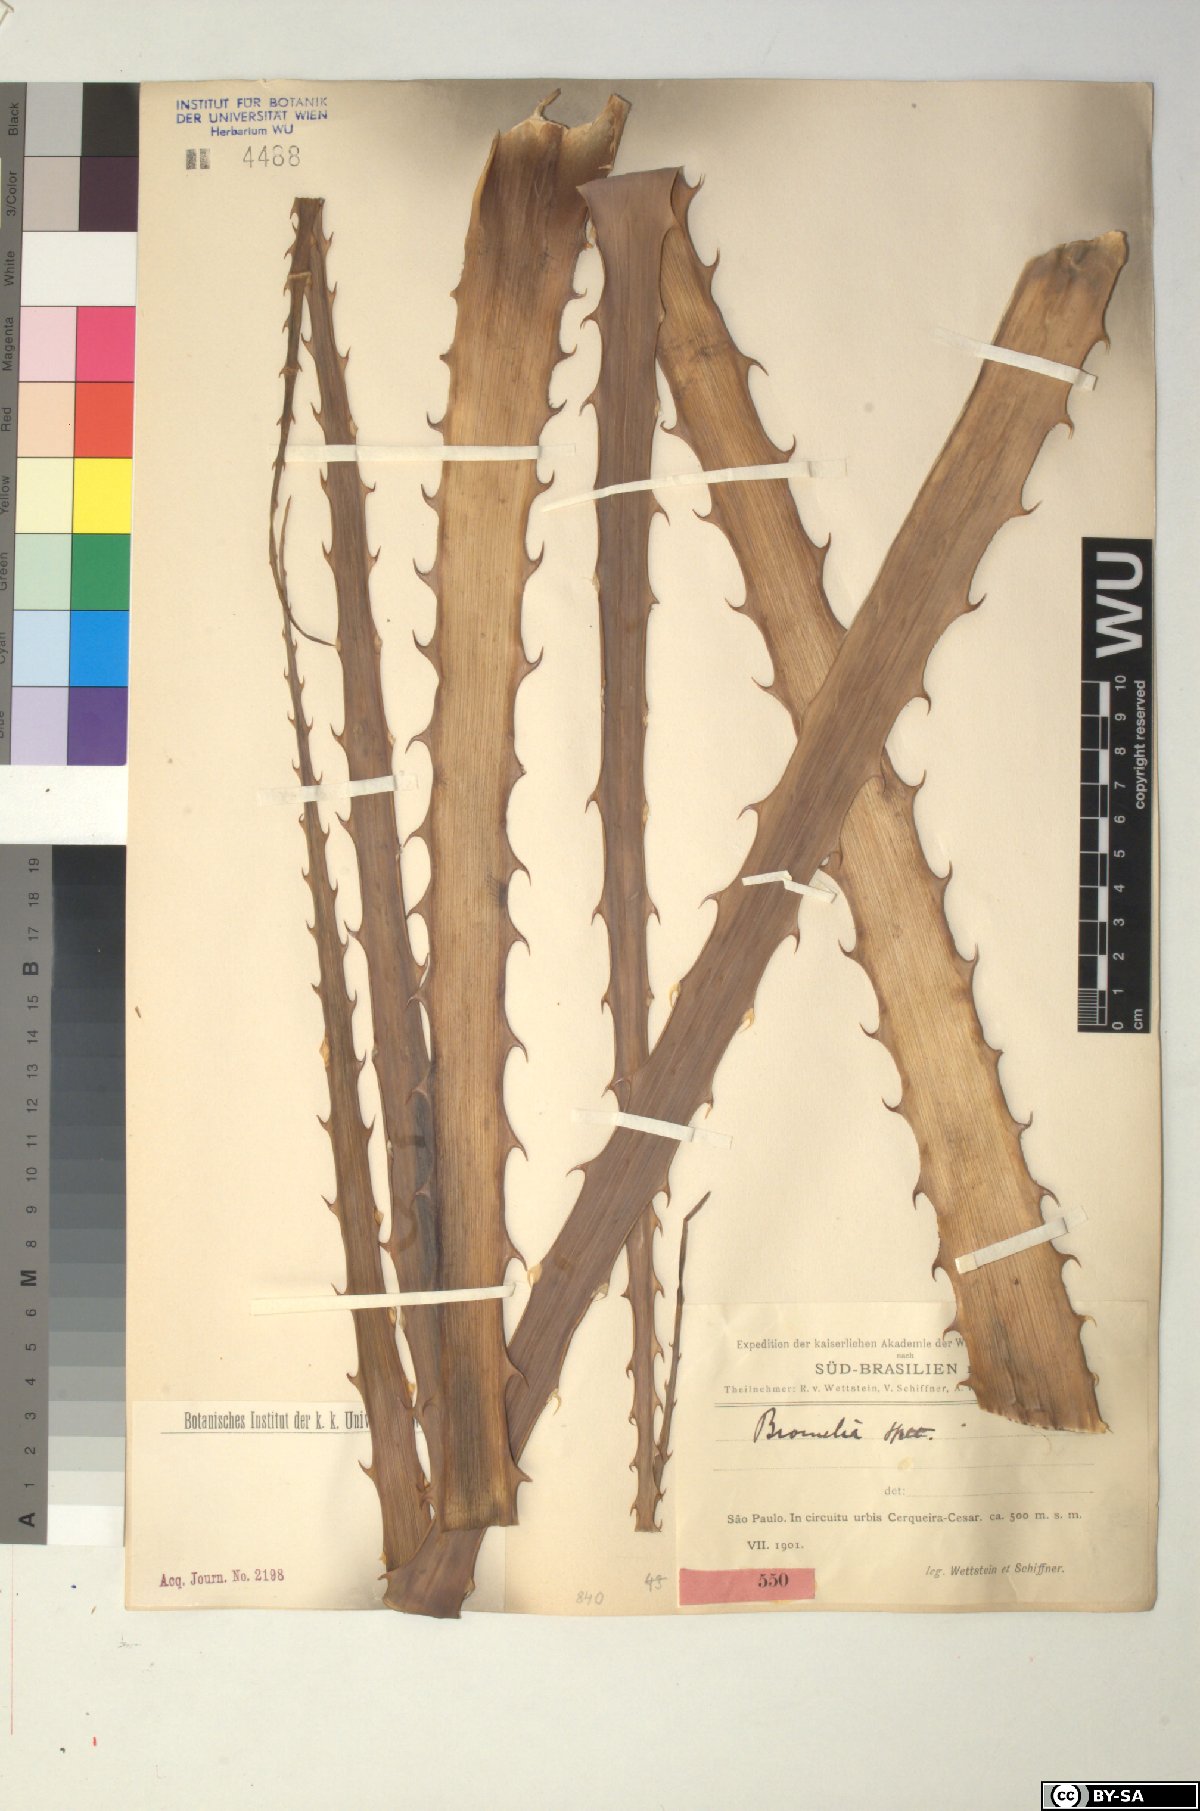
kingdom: Plantae
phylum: Tracheophyta
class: Liliopsida
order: Poales
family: Bromeliaceae
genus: Bromelia
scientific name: Bromelia
